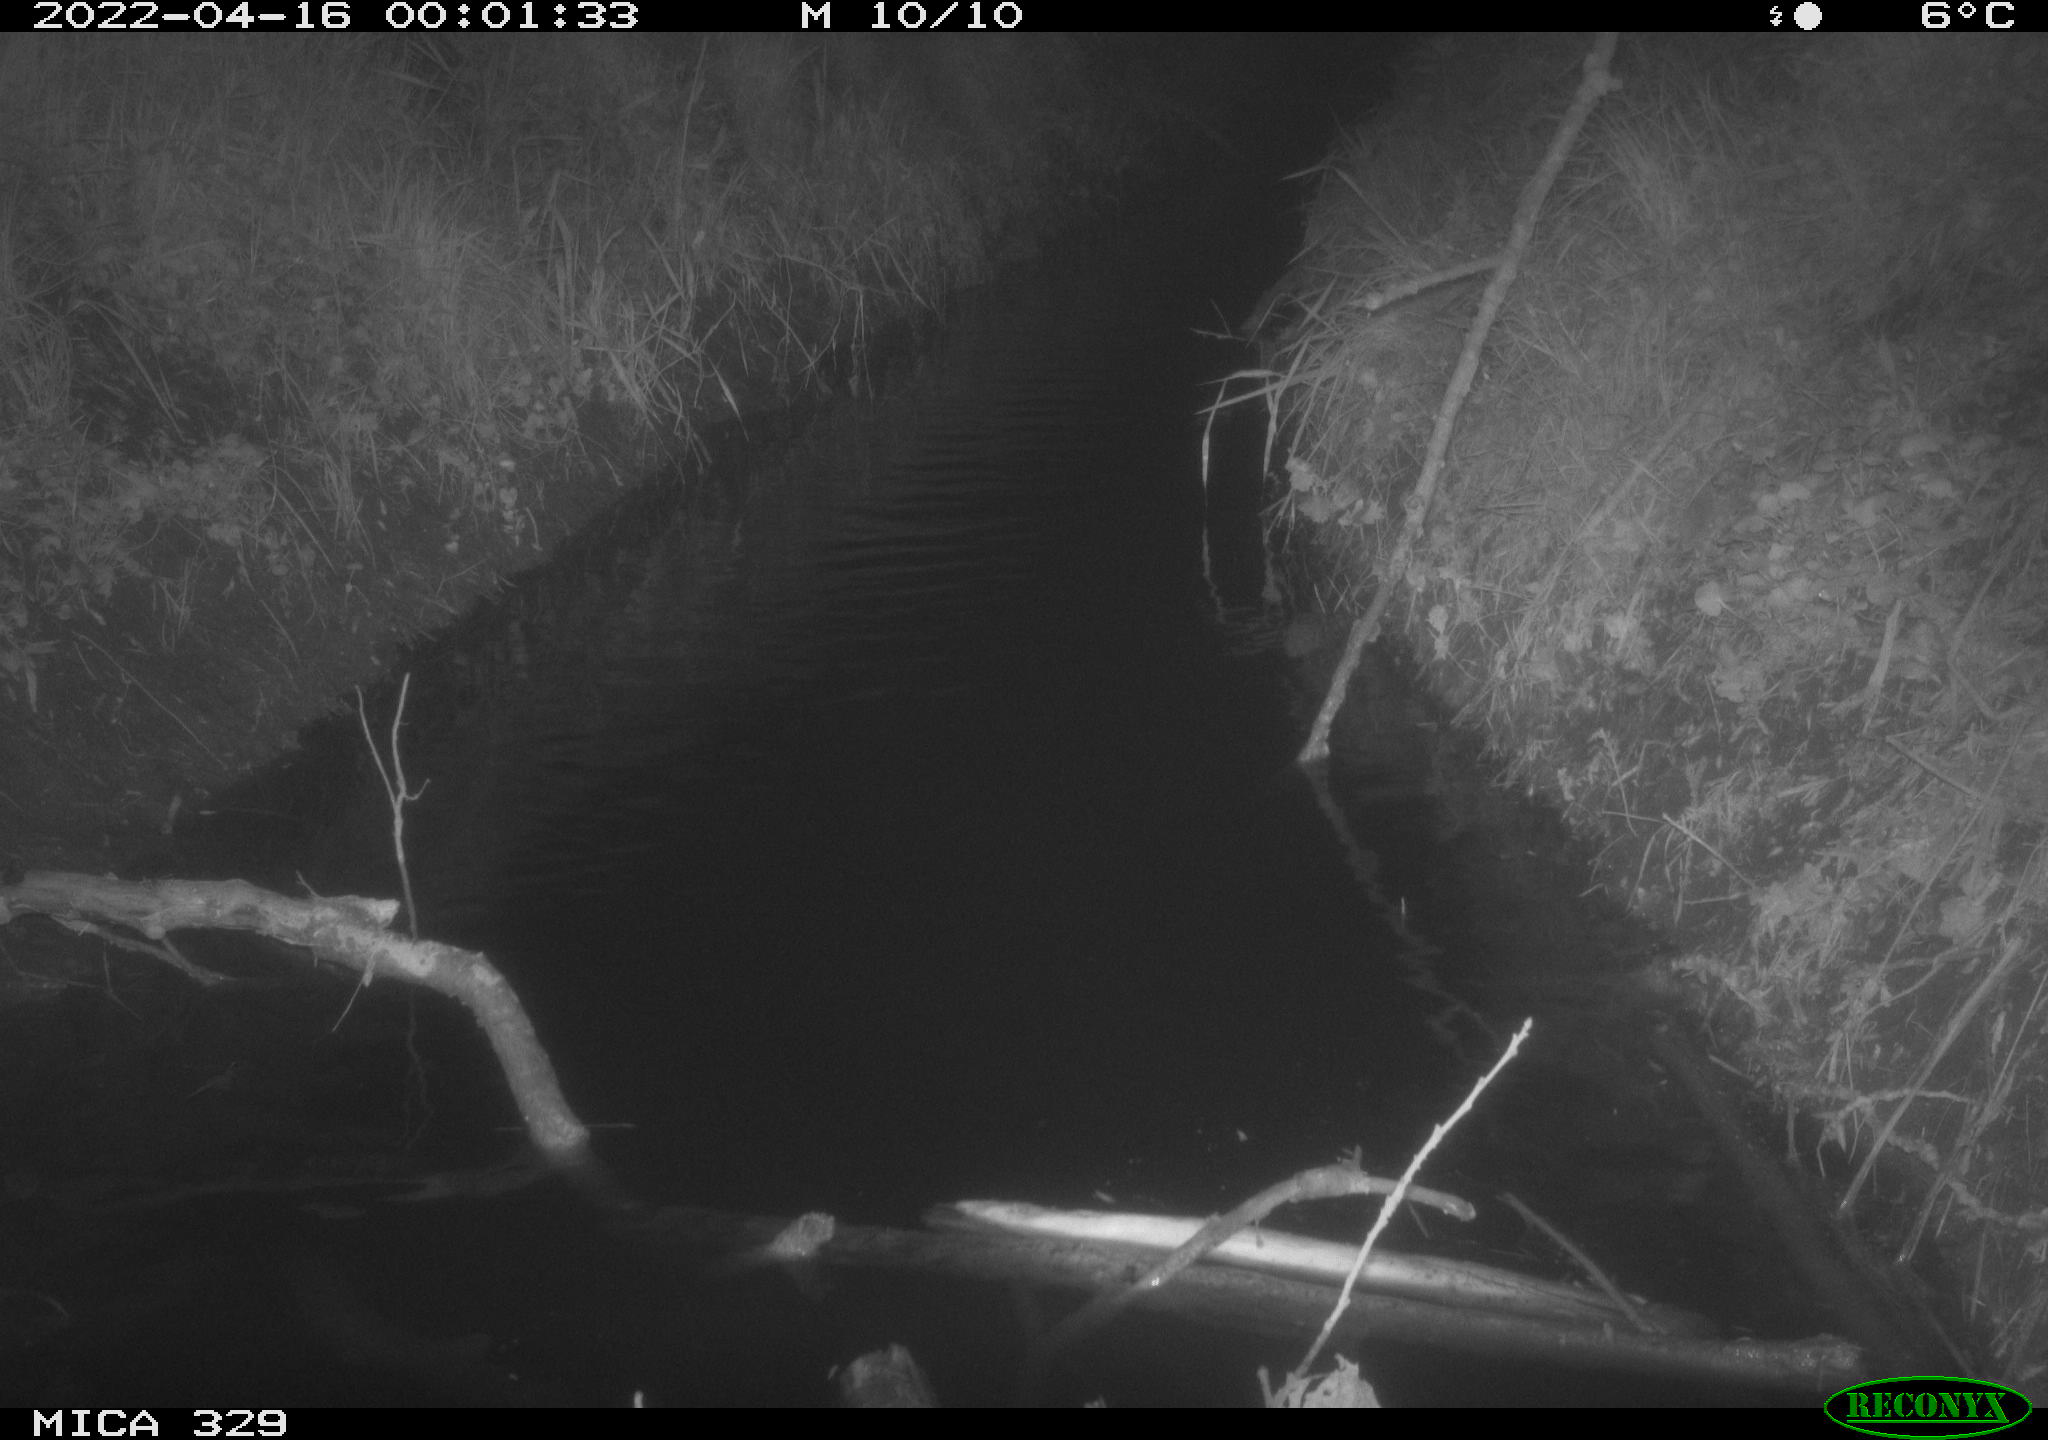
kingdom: Animalia
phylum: Chordata
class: Mammalia
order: Rodentia
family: Cricetidae
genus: Ondatra
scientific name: Ondatra zibethicus
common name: Muskrat
